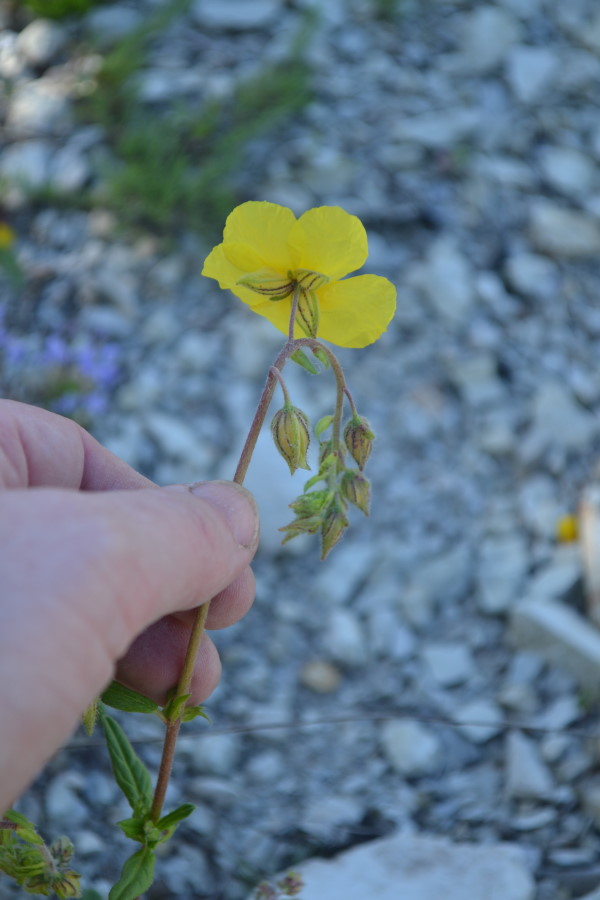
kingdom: Plantae
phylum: Tracheophyta
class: Magnoliopsida
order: Malvales
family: Cistaceae
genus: Helianthemum
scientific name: Helianthemum nummularium
